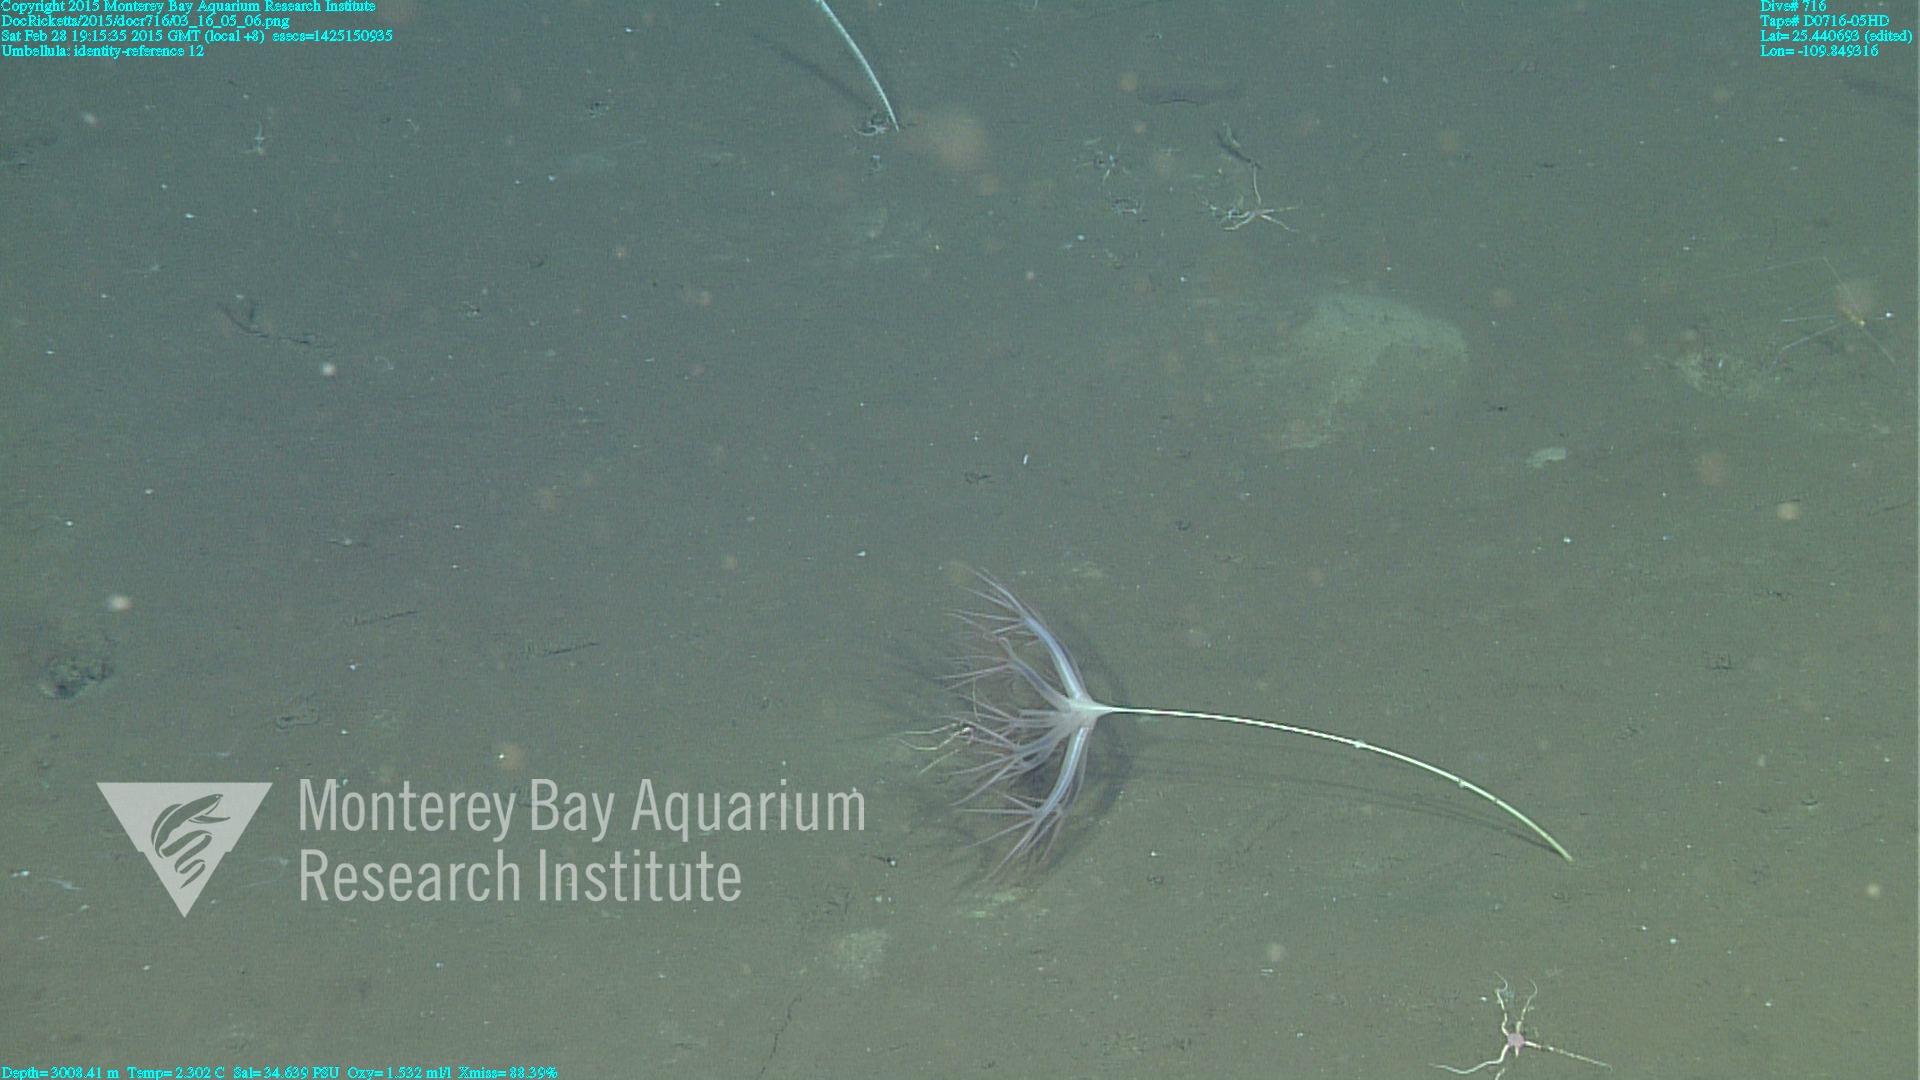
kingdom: Animalia
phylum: Cnidaria
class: Anthozoa
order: Scleralcyonacea
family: Umbellulidae
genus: Umbellula
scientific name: Umbellula
